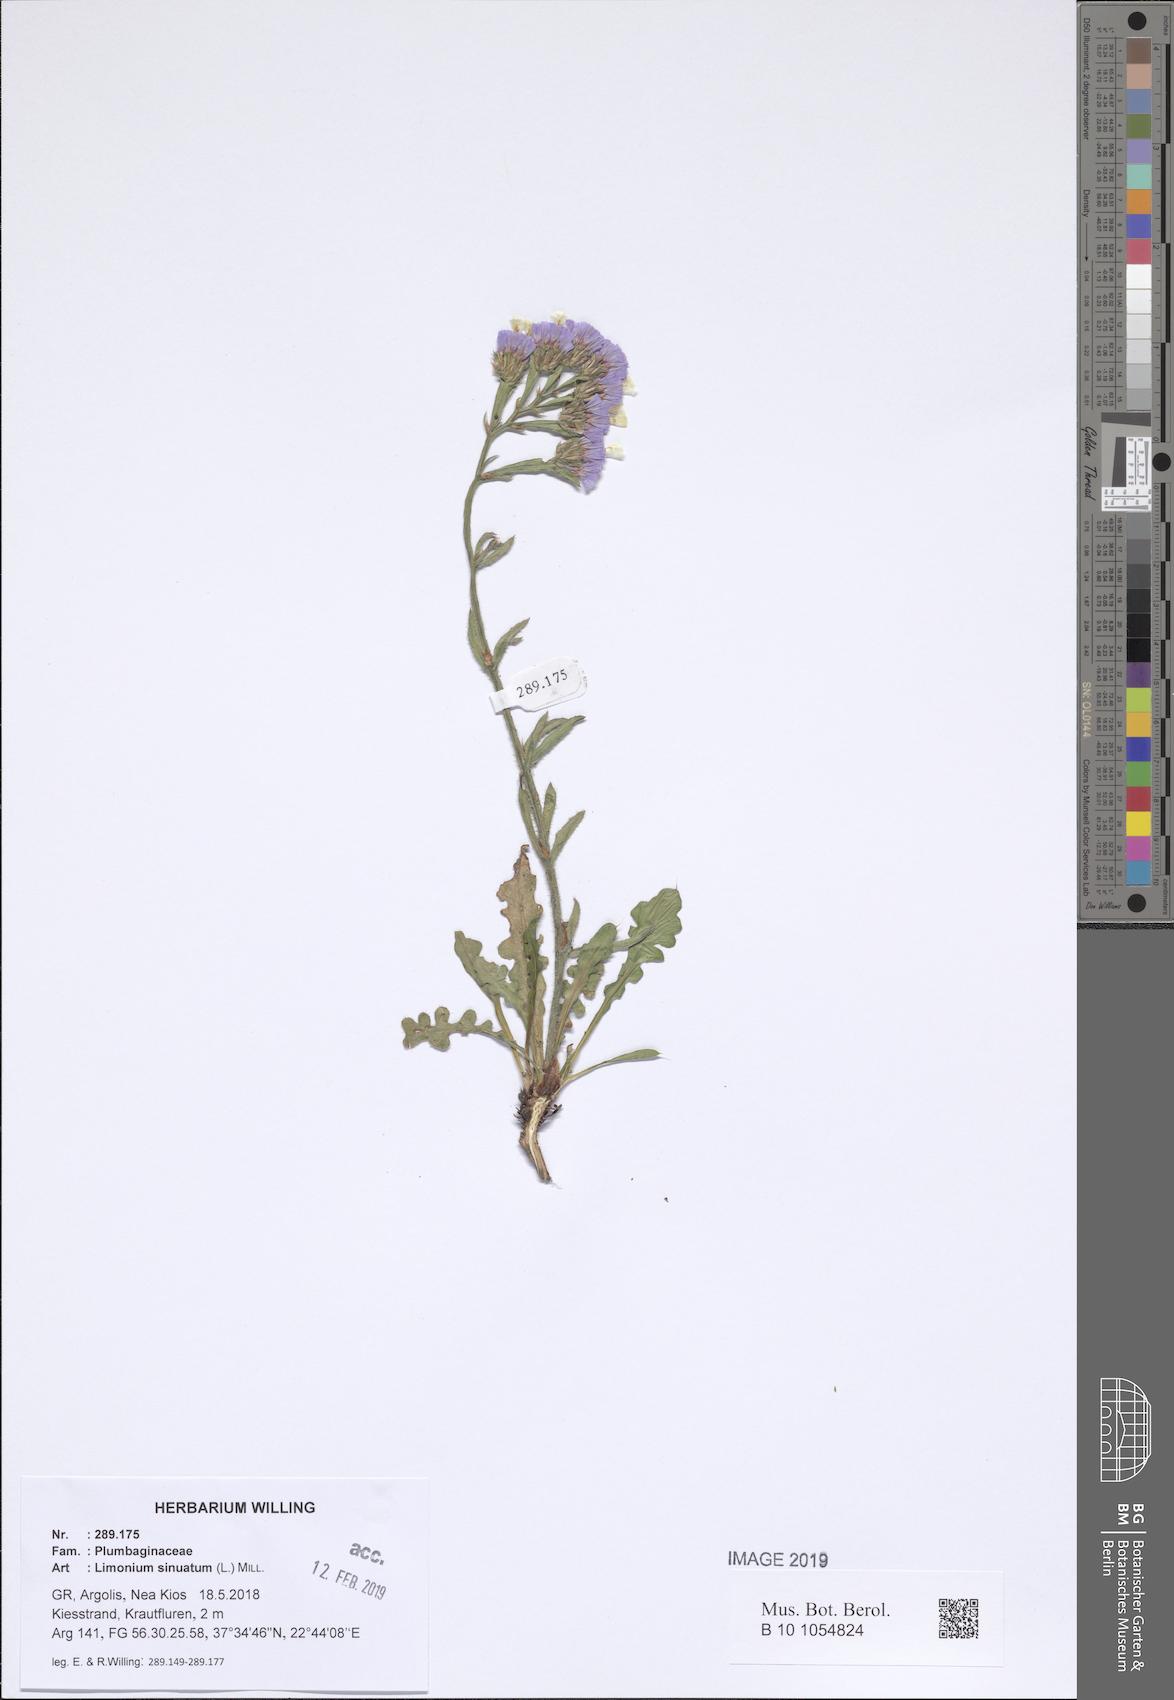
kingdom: Plantae
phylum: Tracheophyta
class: Magnoliopsida
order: Caryophyllales
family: Plumbaginaceae
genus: Limonium
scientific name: Limonium sinuatum
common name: Statice
